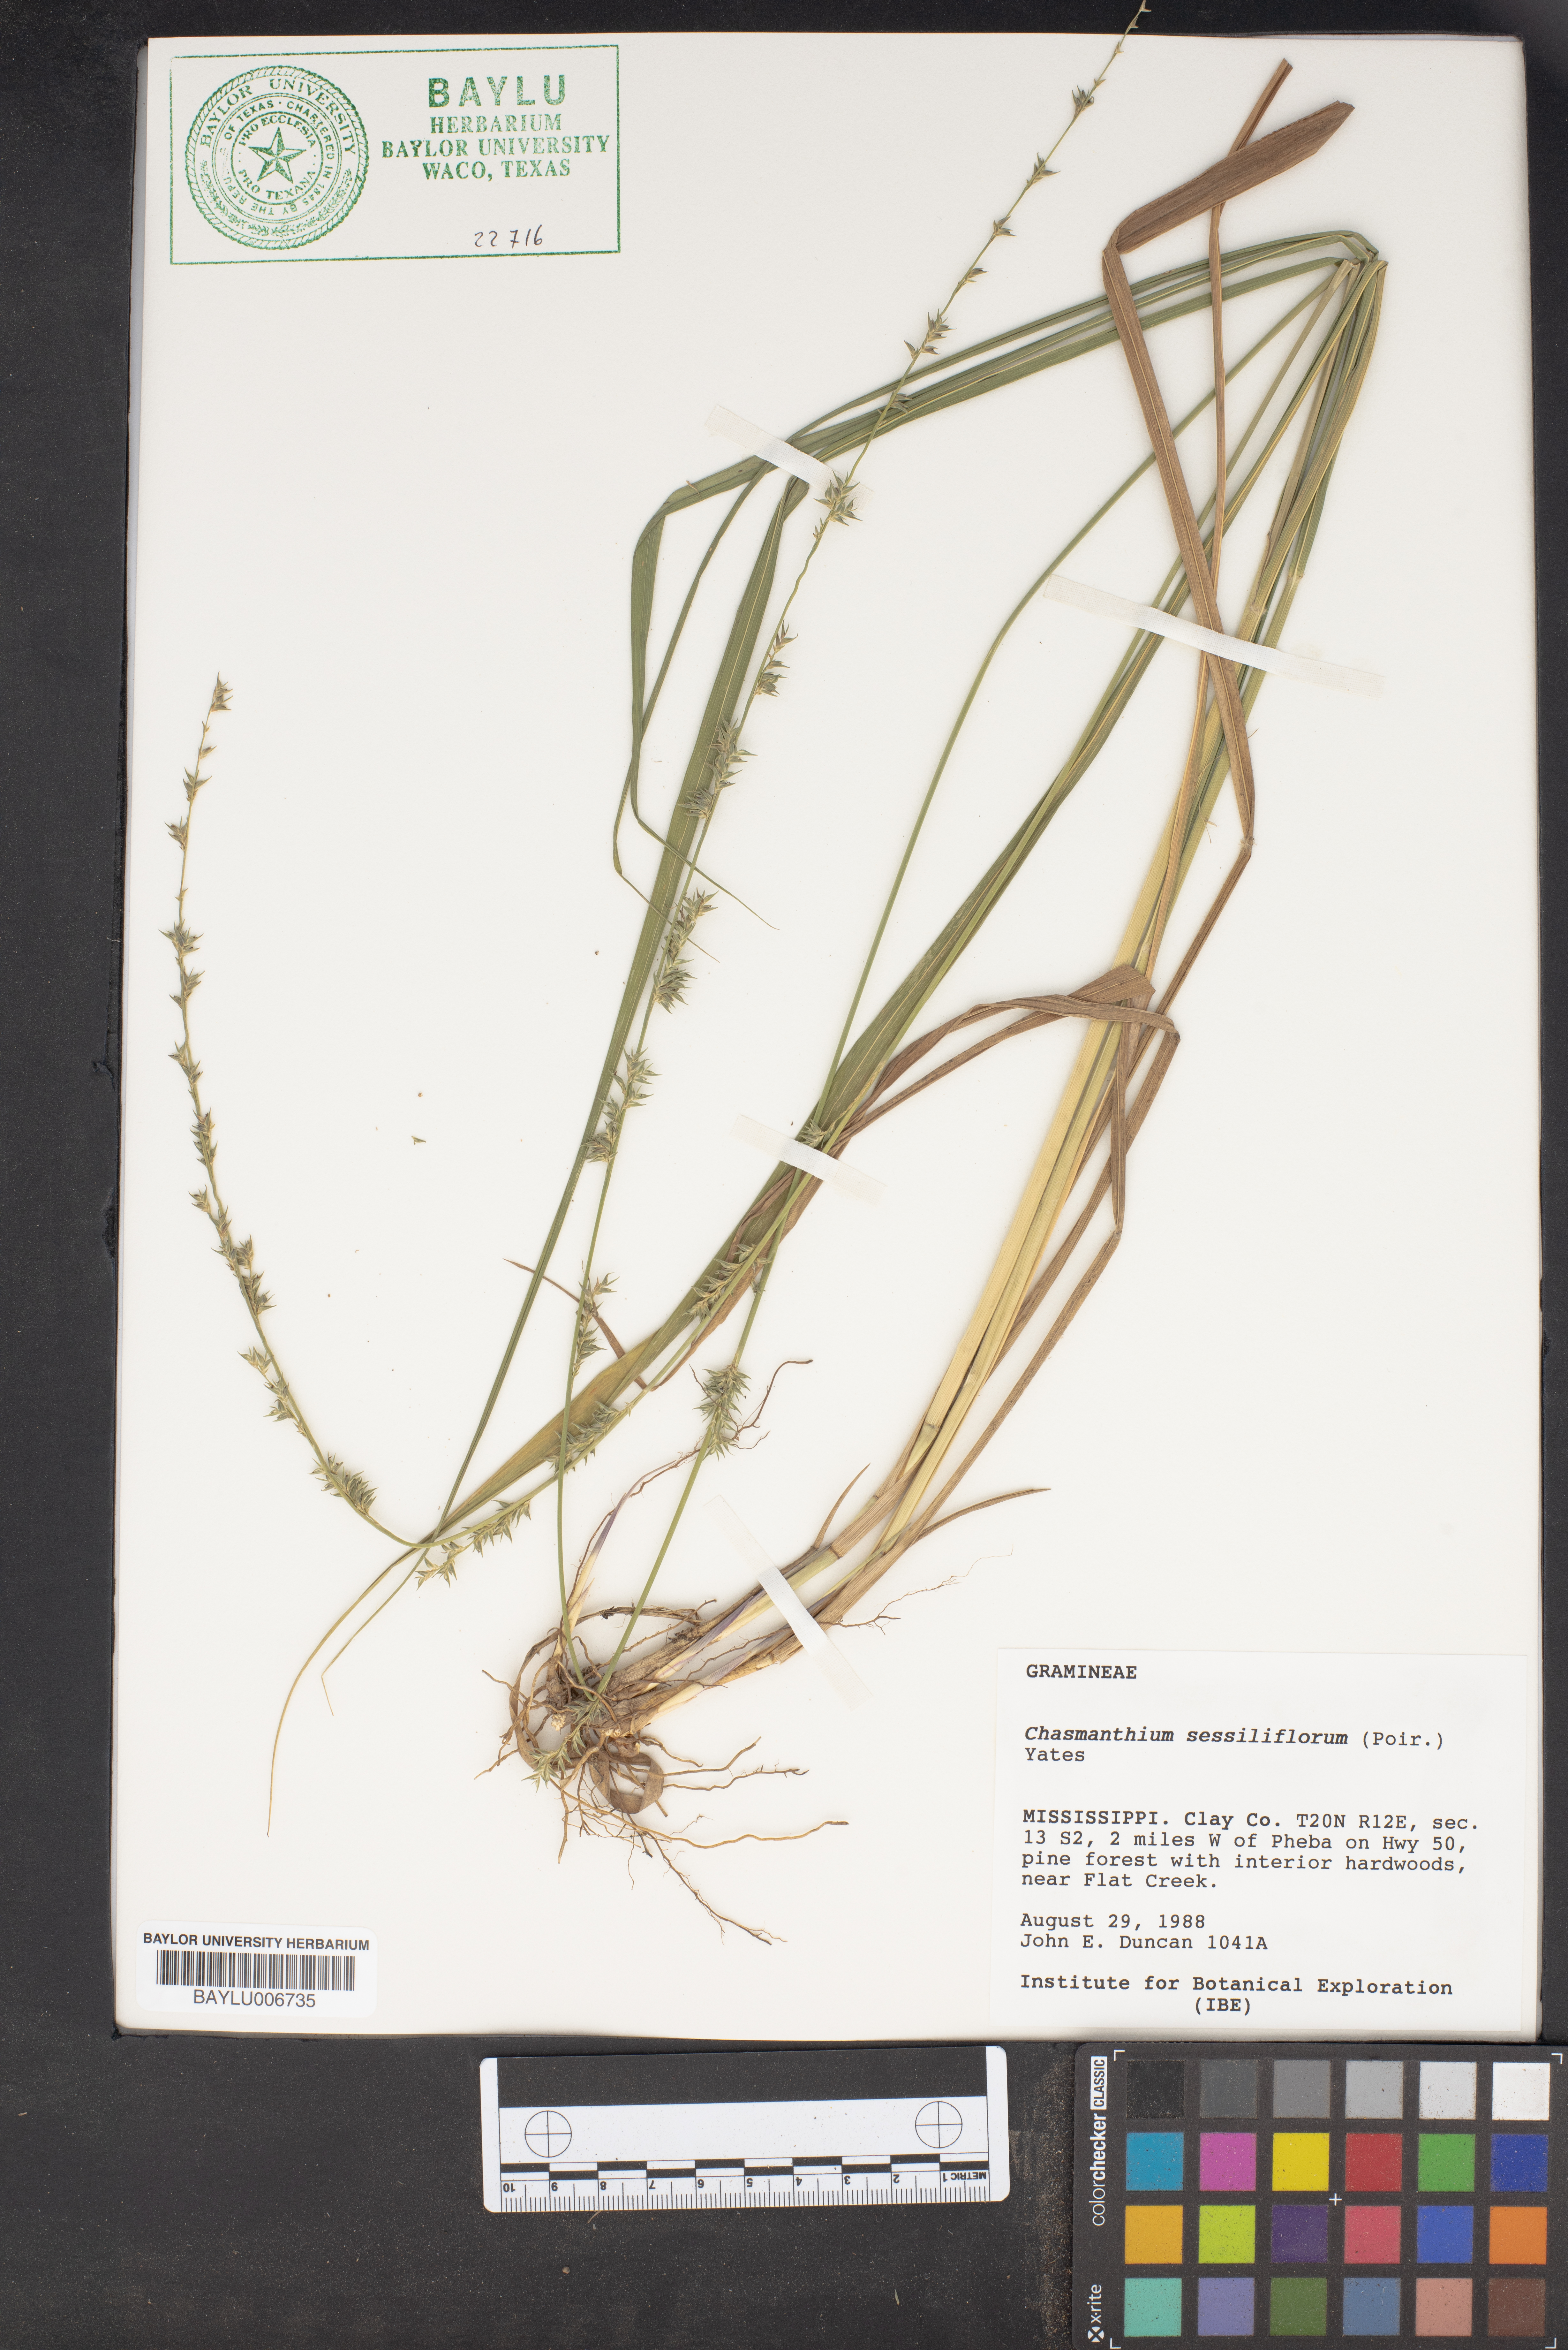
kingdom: Plantae
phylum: Tracheophyta
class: Liliopsida
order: Poales
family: Poaceae
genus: Chasmanthium
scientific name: Chasmanthium laxum
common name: Slender chasmanthium
